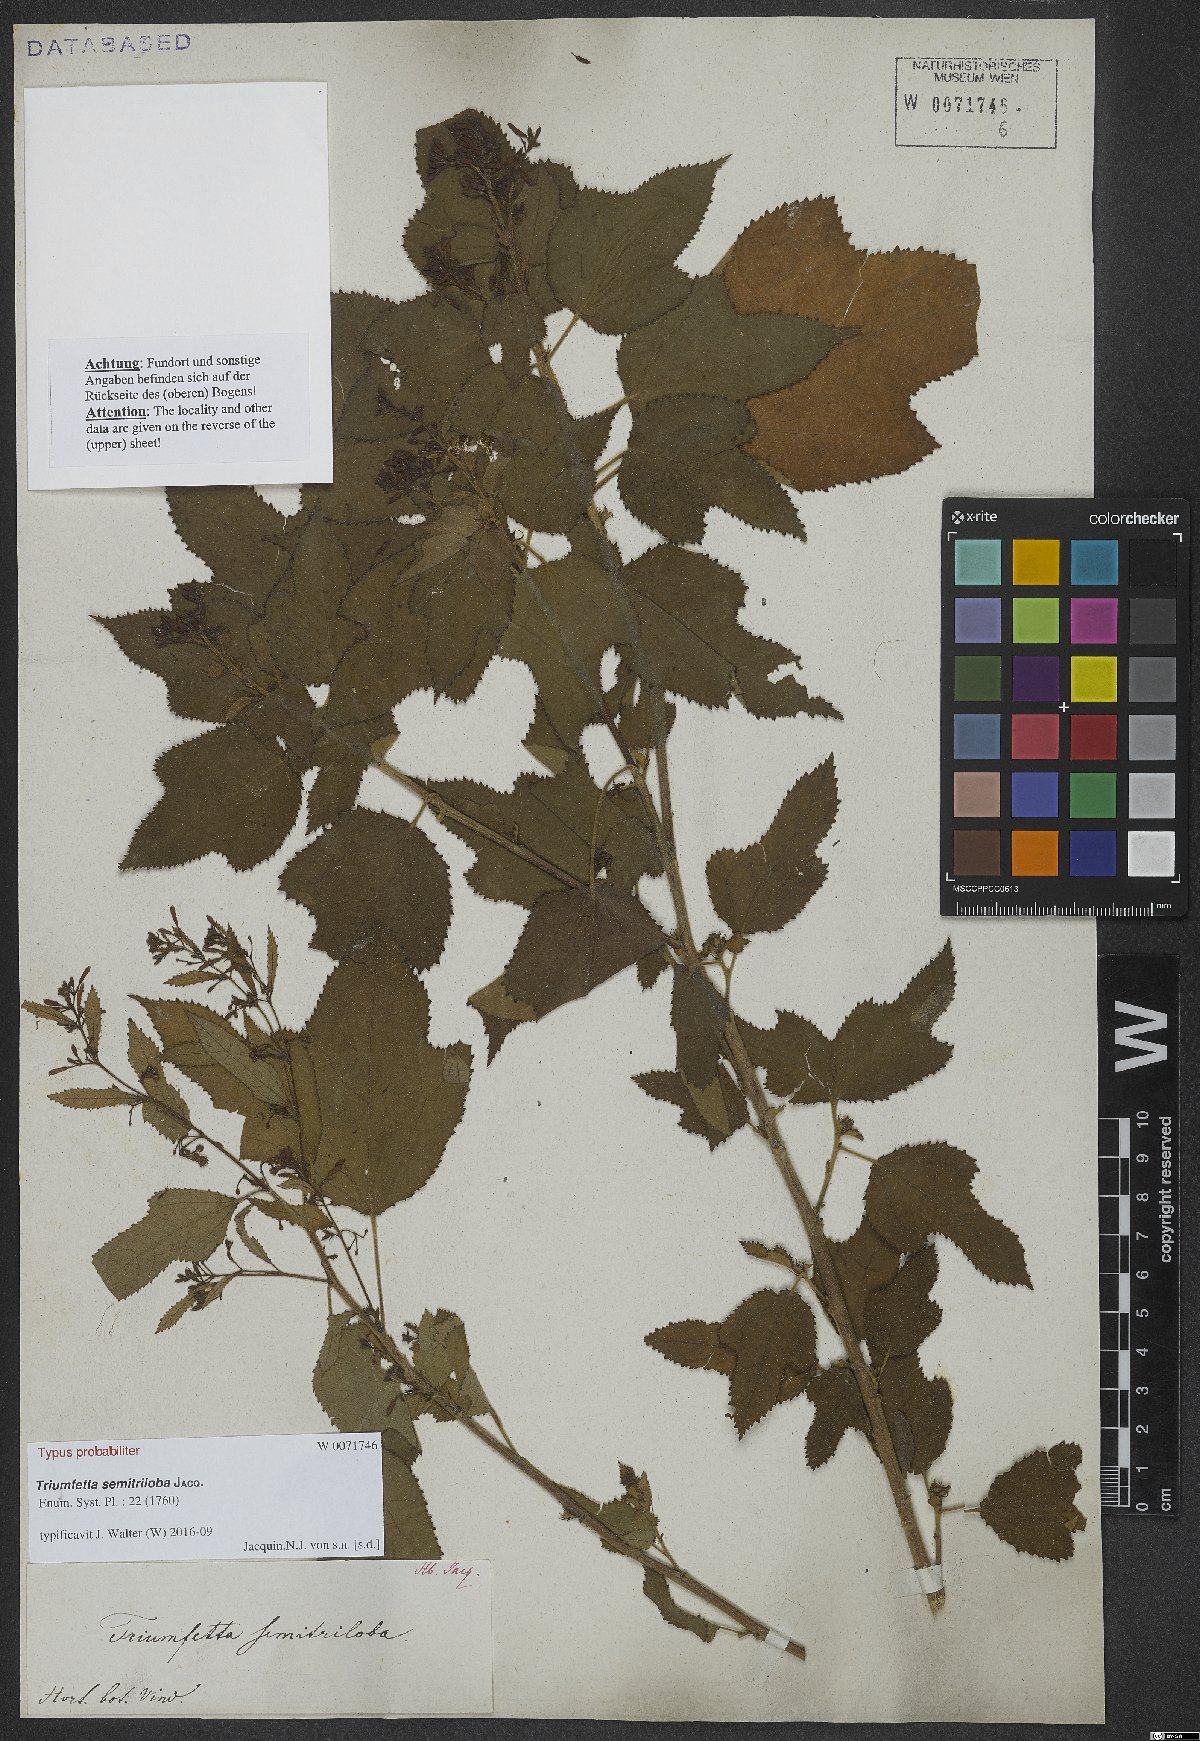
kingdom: Plantae
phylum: Tracheophyta
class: Magnoliopsida
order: Malvales
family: Malvaceae
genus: Triumfetta
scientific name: Triumfetta semitriloba
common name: Sacramento burbark
